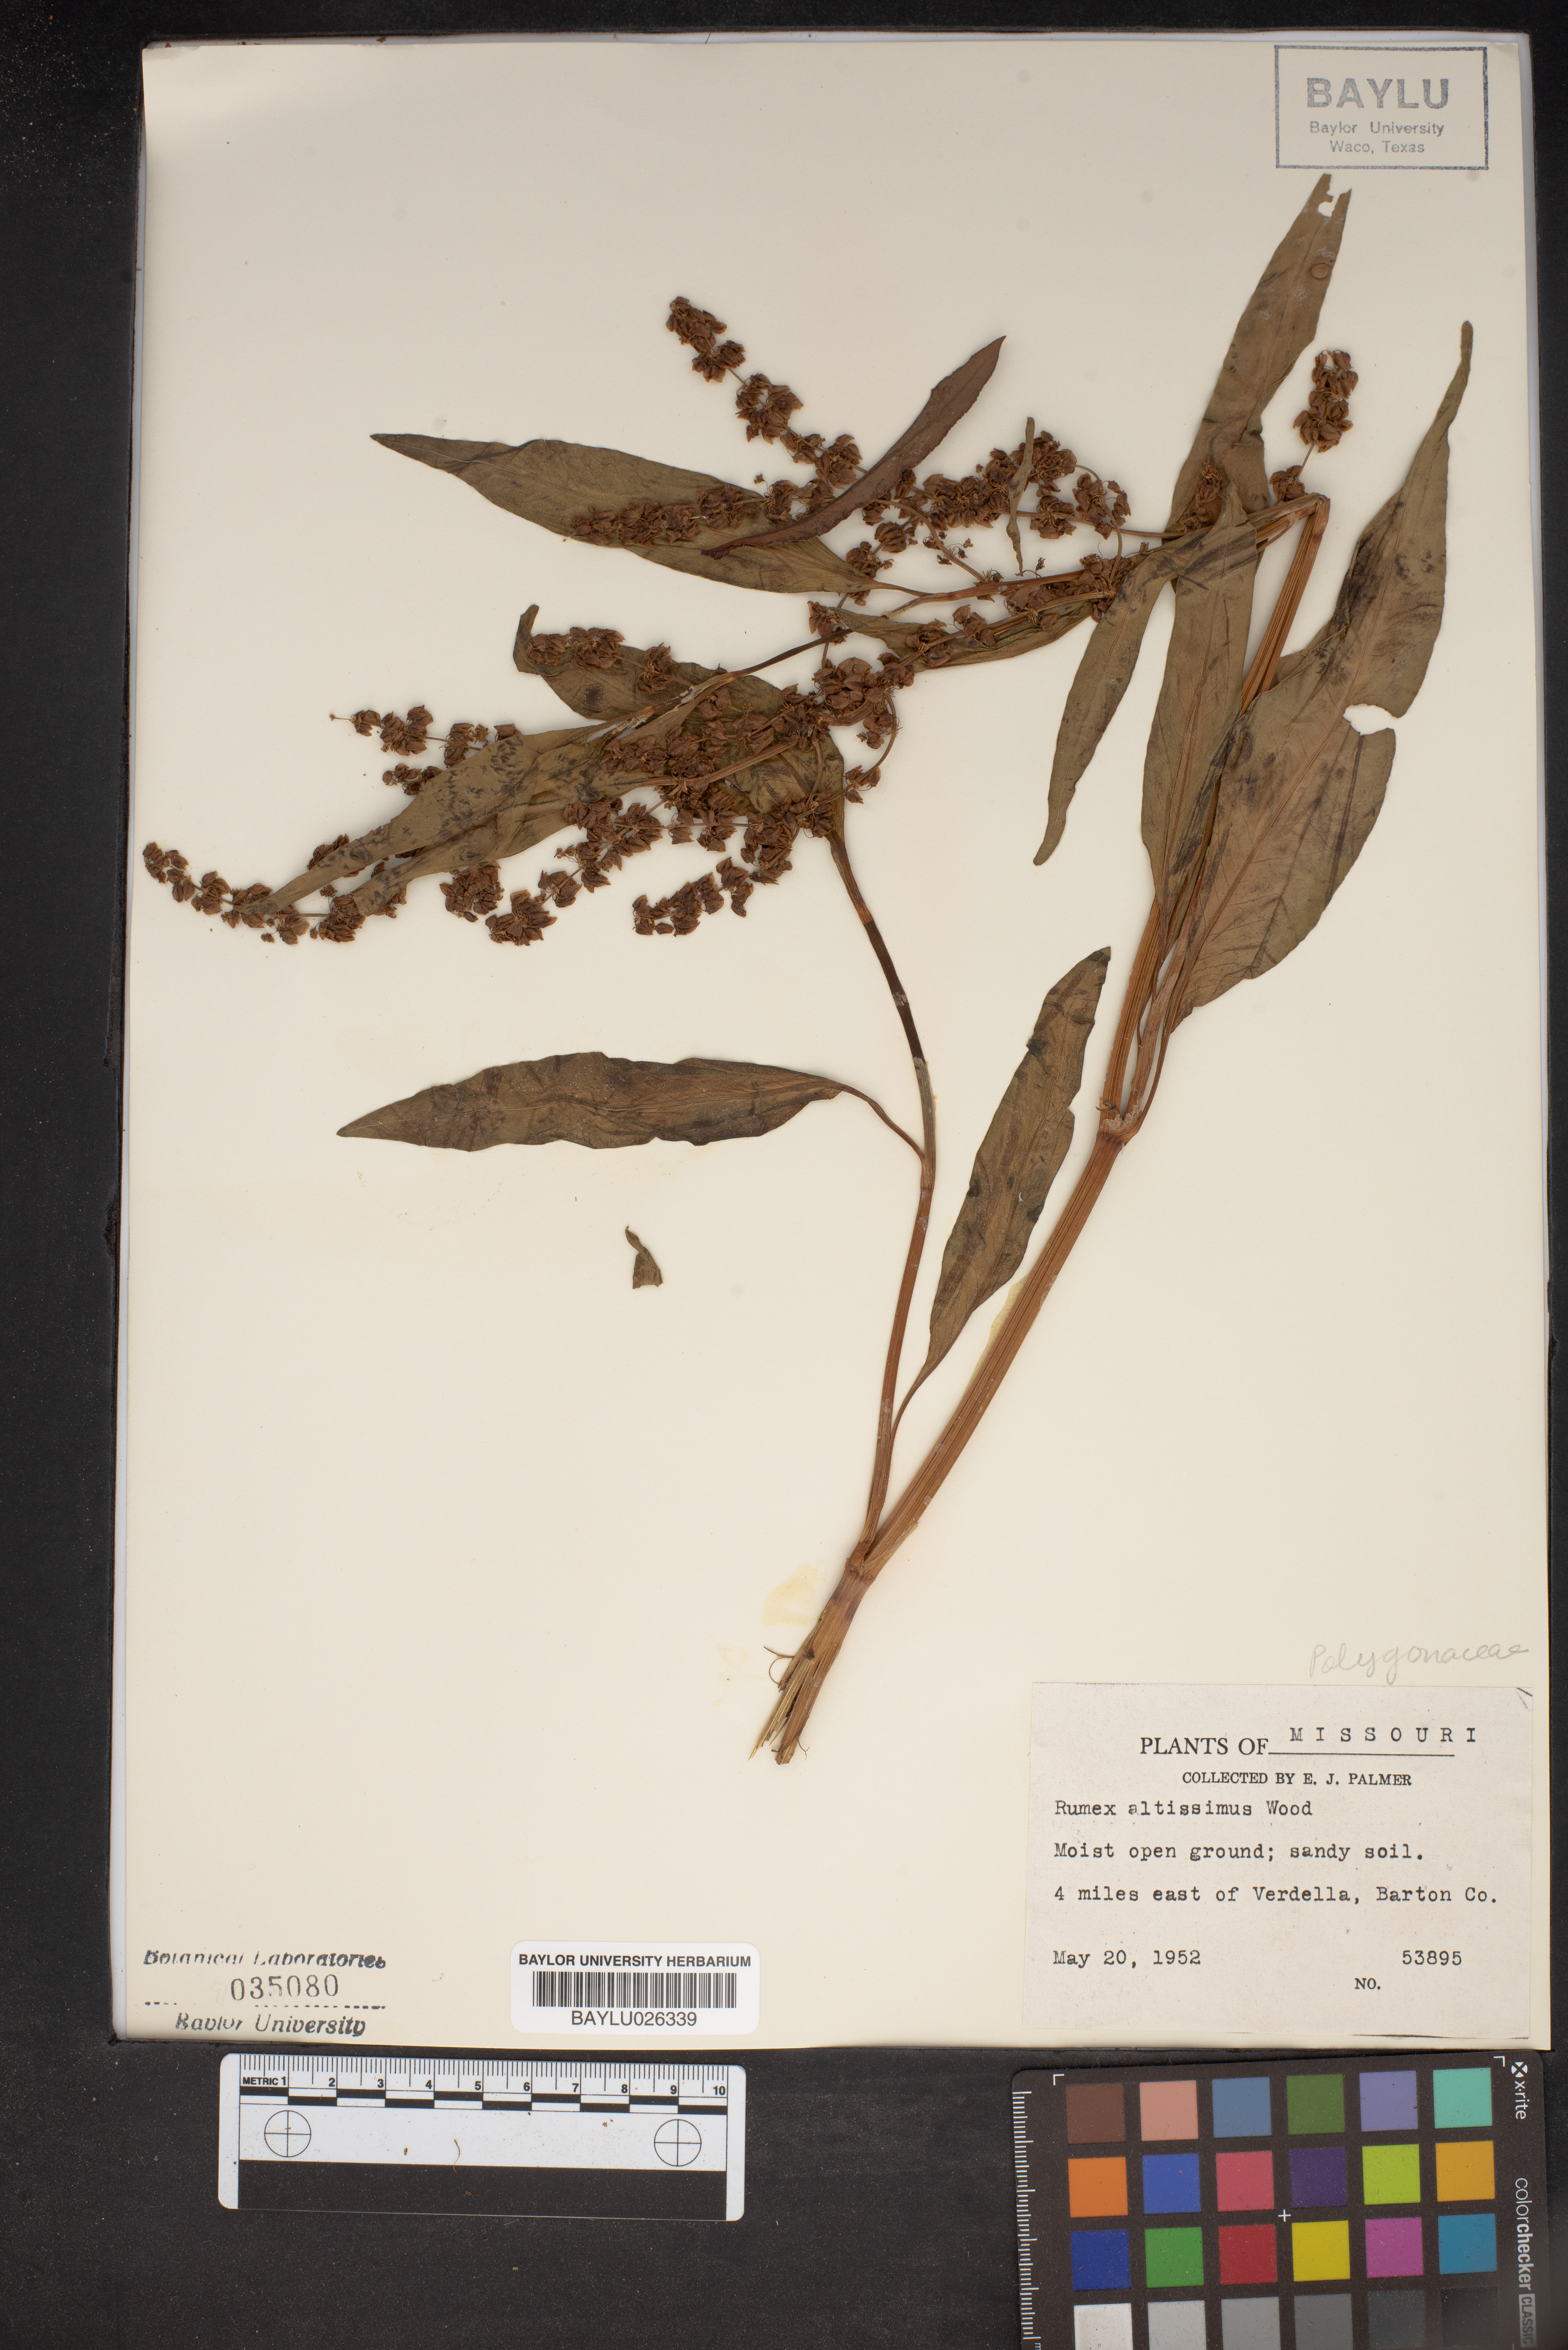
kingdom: Plantae
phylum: Tracheophyta
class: Magnoliopsida
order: Caryophyllales
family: Polygonaceae
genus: Rumex
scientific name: Rumex altissimus
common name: Smooth dock
